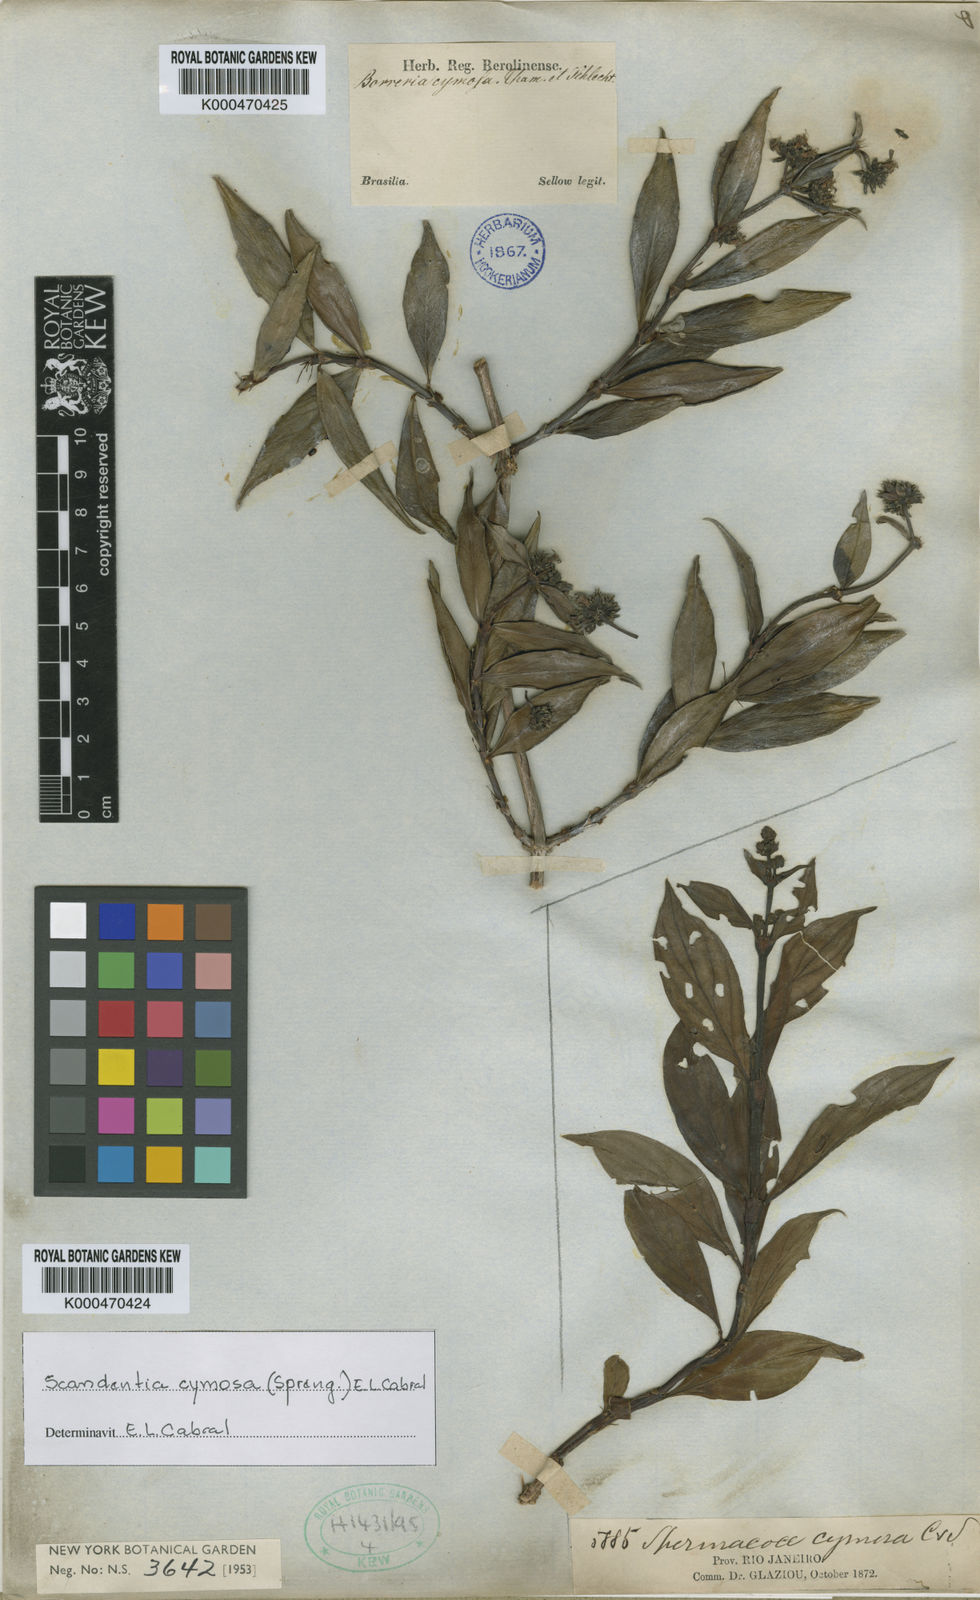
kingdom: Plantae
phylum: Tracheophyta
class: Magnoliopsida
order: Gentianales
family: Rubiaceae
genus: Denscantia
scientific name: Denscantia cymosa
